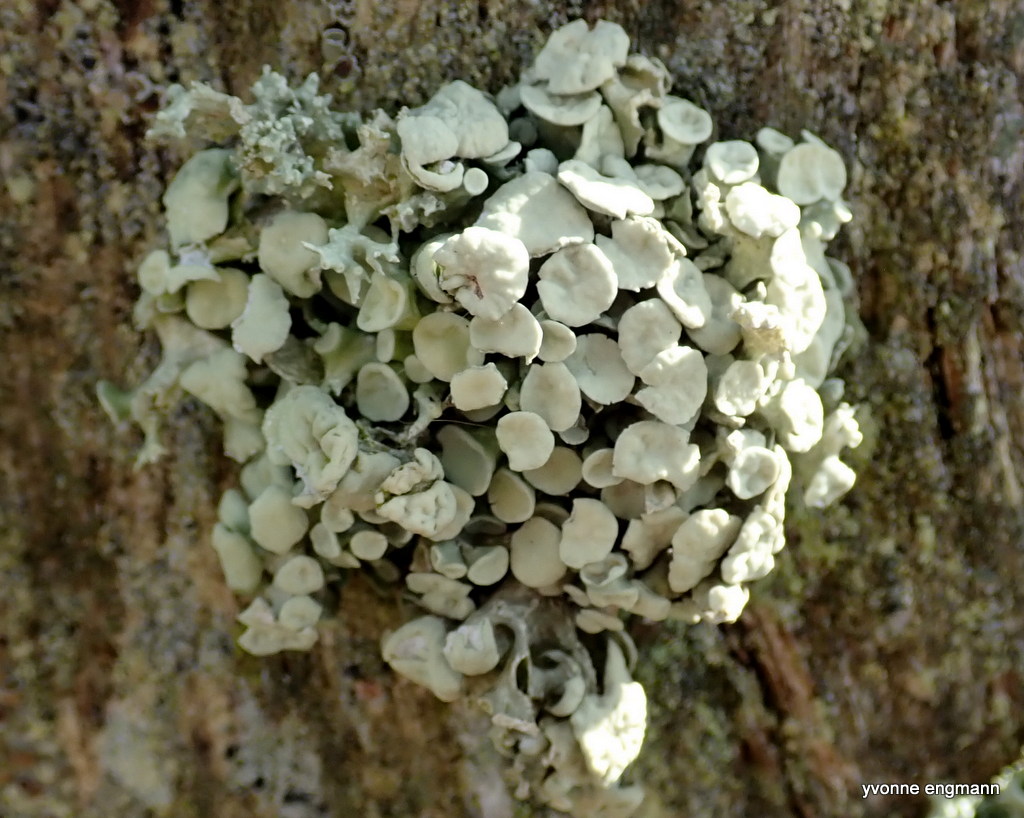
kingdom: Fungi
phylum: Ascomycota
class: Lecanoromycetes
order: Lecanorales
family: Ramalinaceae
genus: Ramalina
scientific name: Ramalina fastigiata
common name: tue-grenlav
